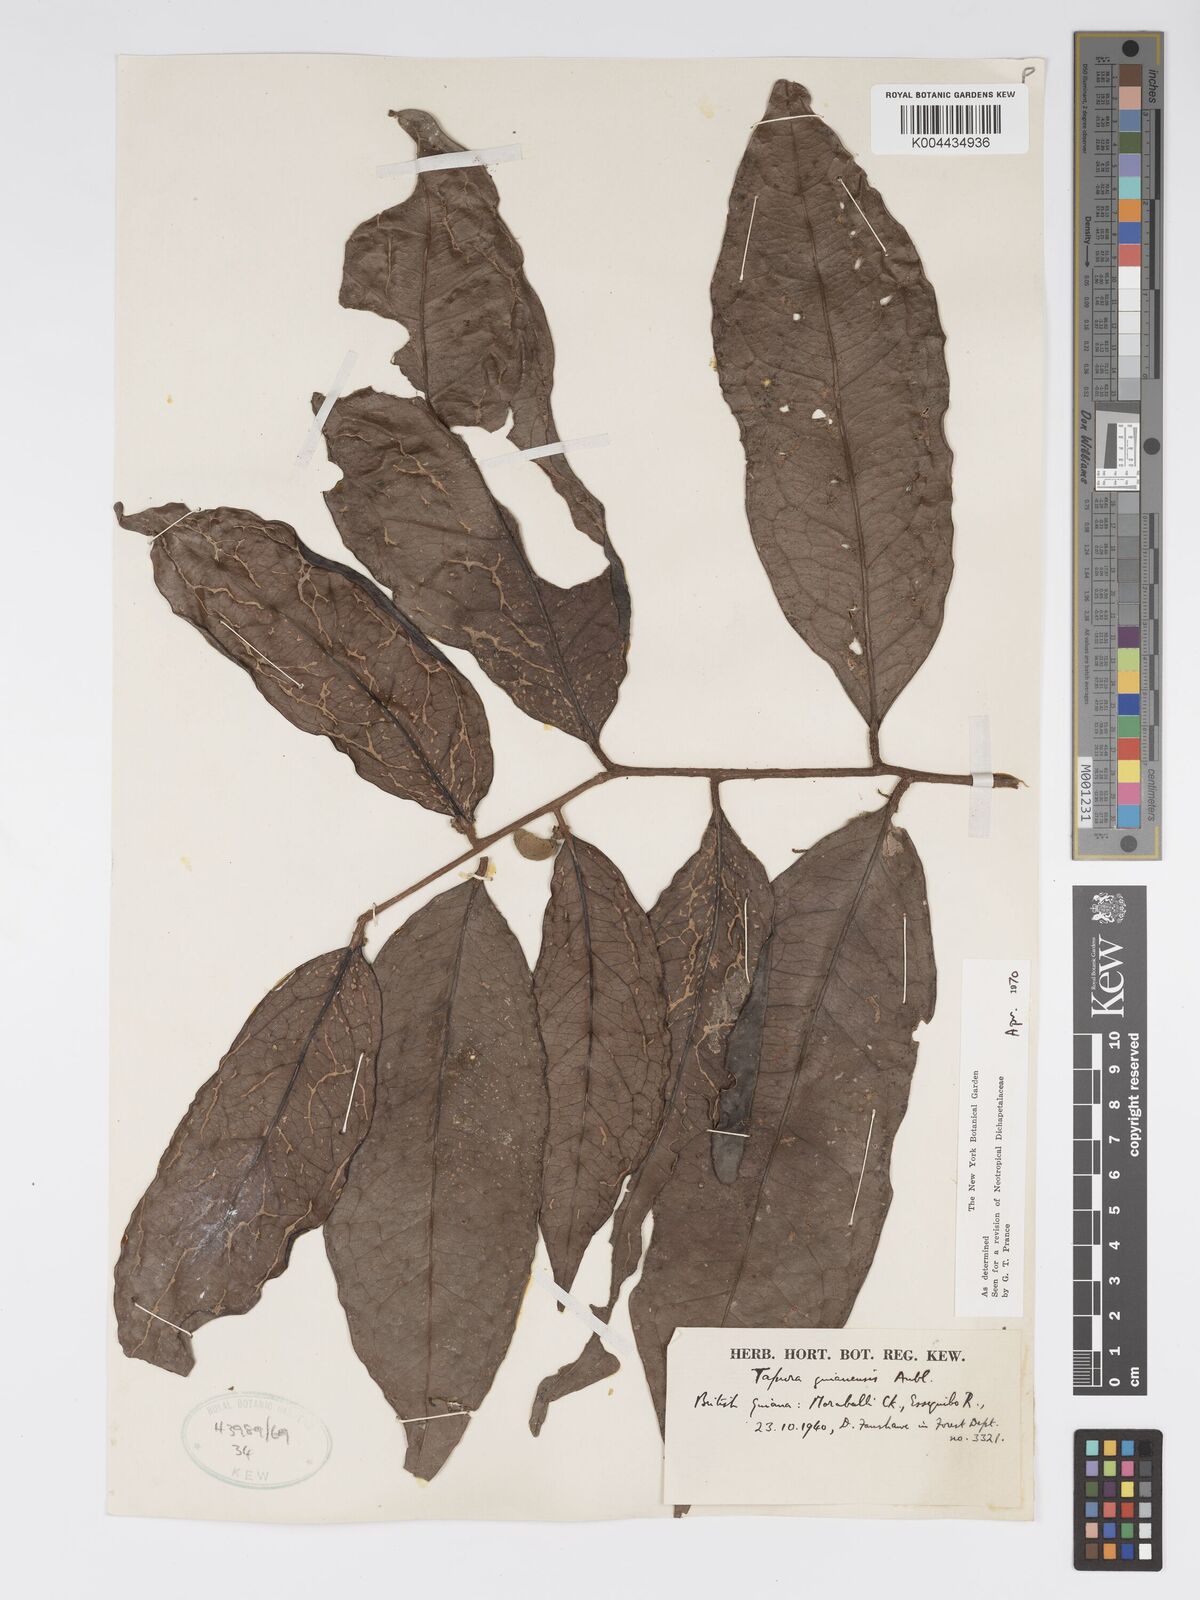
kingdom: Plantae
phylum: Tracheophyta
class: Magnoliopsida
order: Malpighiales
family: Dichapetalaceae
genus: Tapura
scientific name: Tapura guianensis
